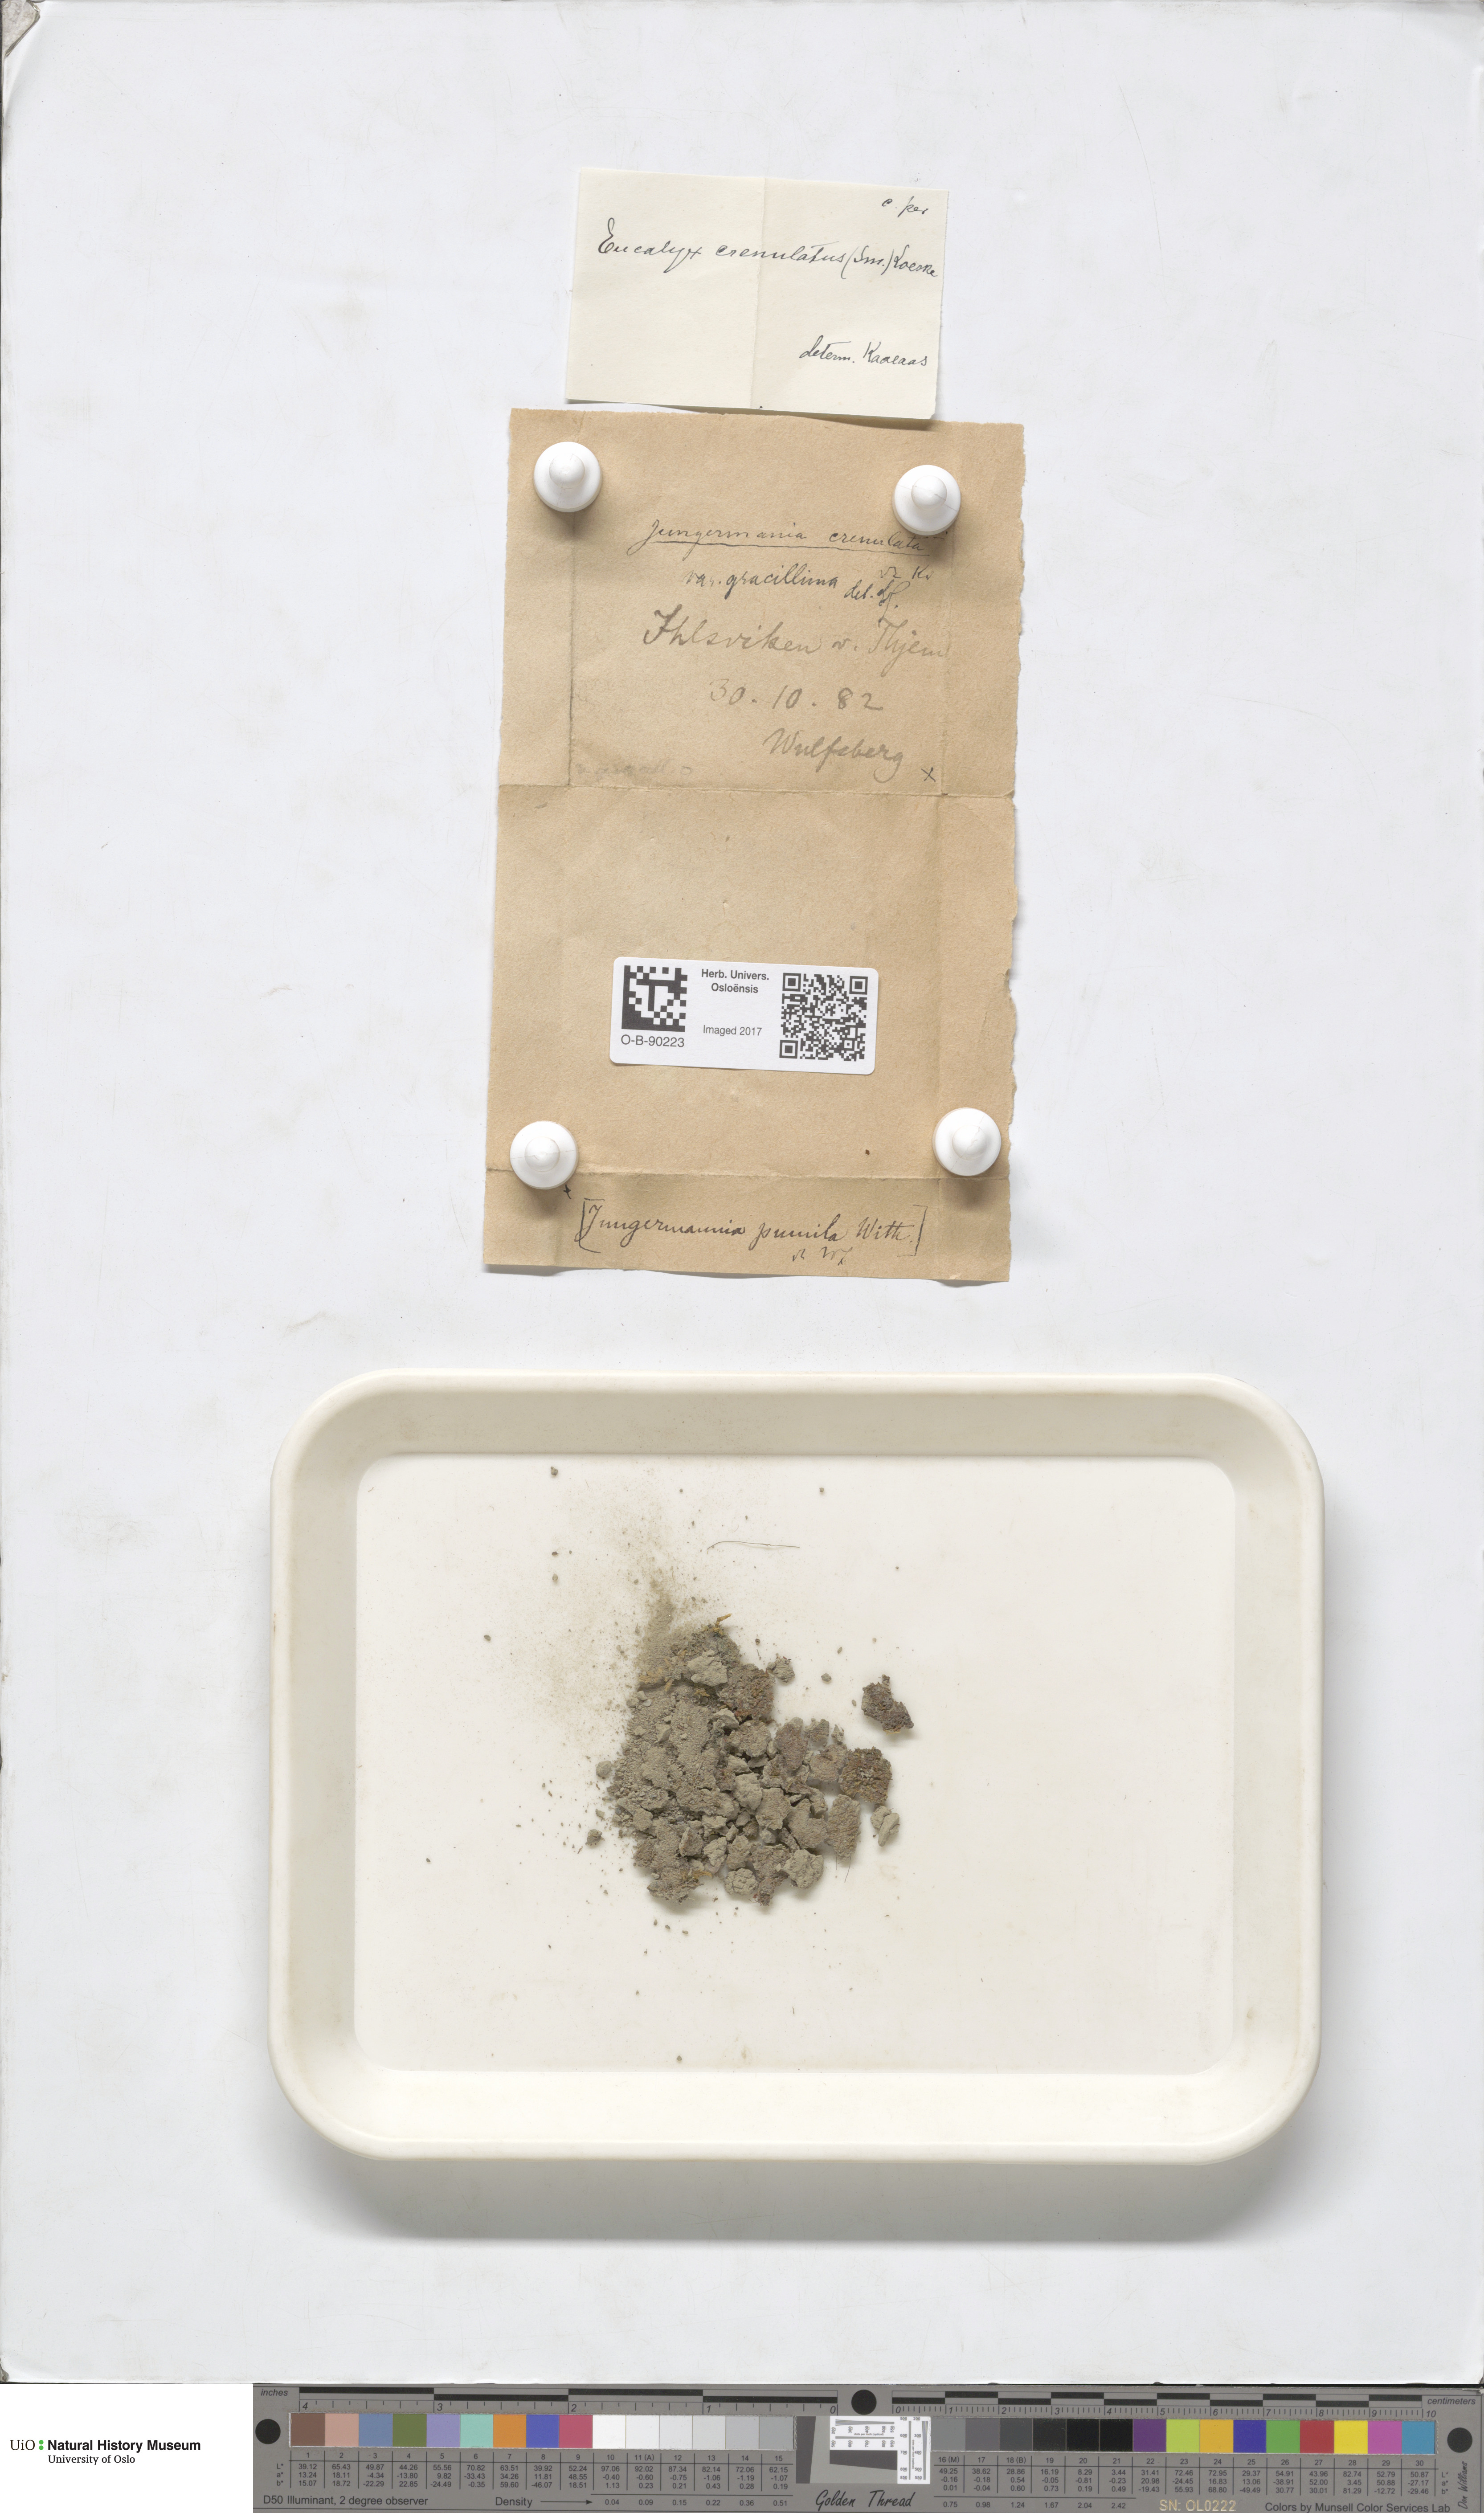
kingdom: Plantae
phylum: Marchantiophyta
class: Jungermanniopsida
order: Jungermanniales
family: Solenostomataceae
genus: Solenostoma
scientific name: Solenostoma gracillimum
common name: Crenulated flapwort
